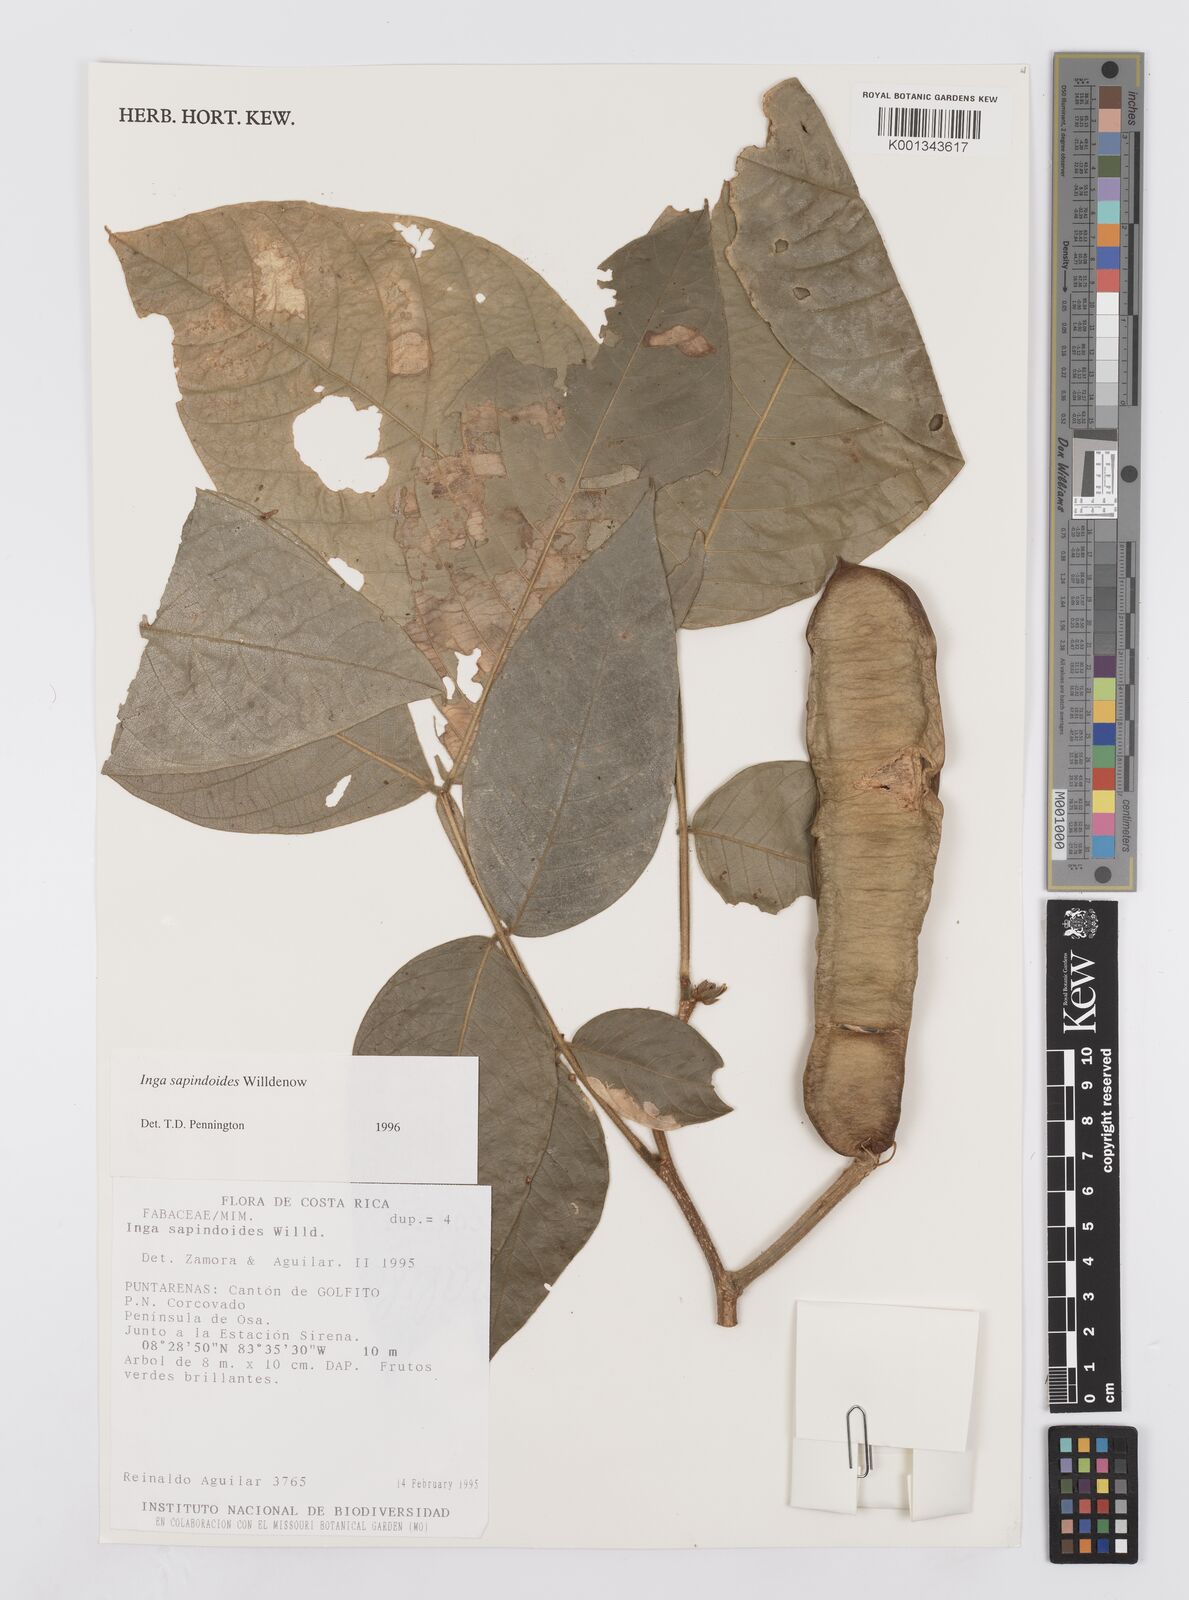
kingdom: Plantae
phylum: Tracheophyta
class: Magnoliopsida
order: Fabales
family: Fabaceae
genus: Inga
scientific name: Inga sapindoides
